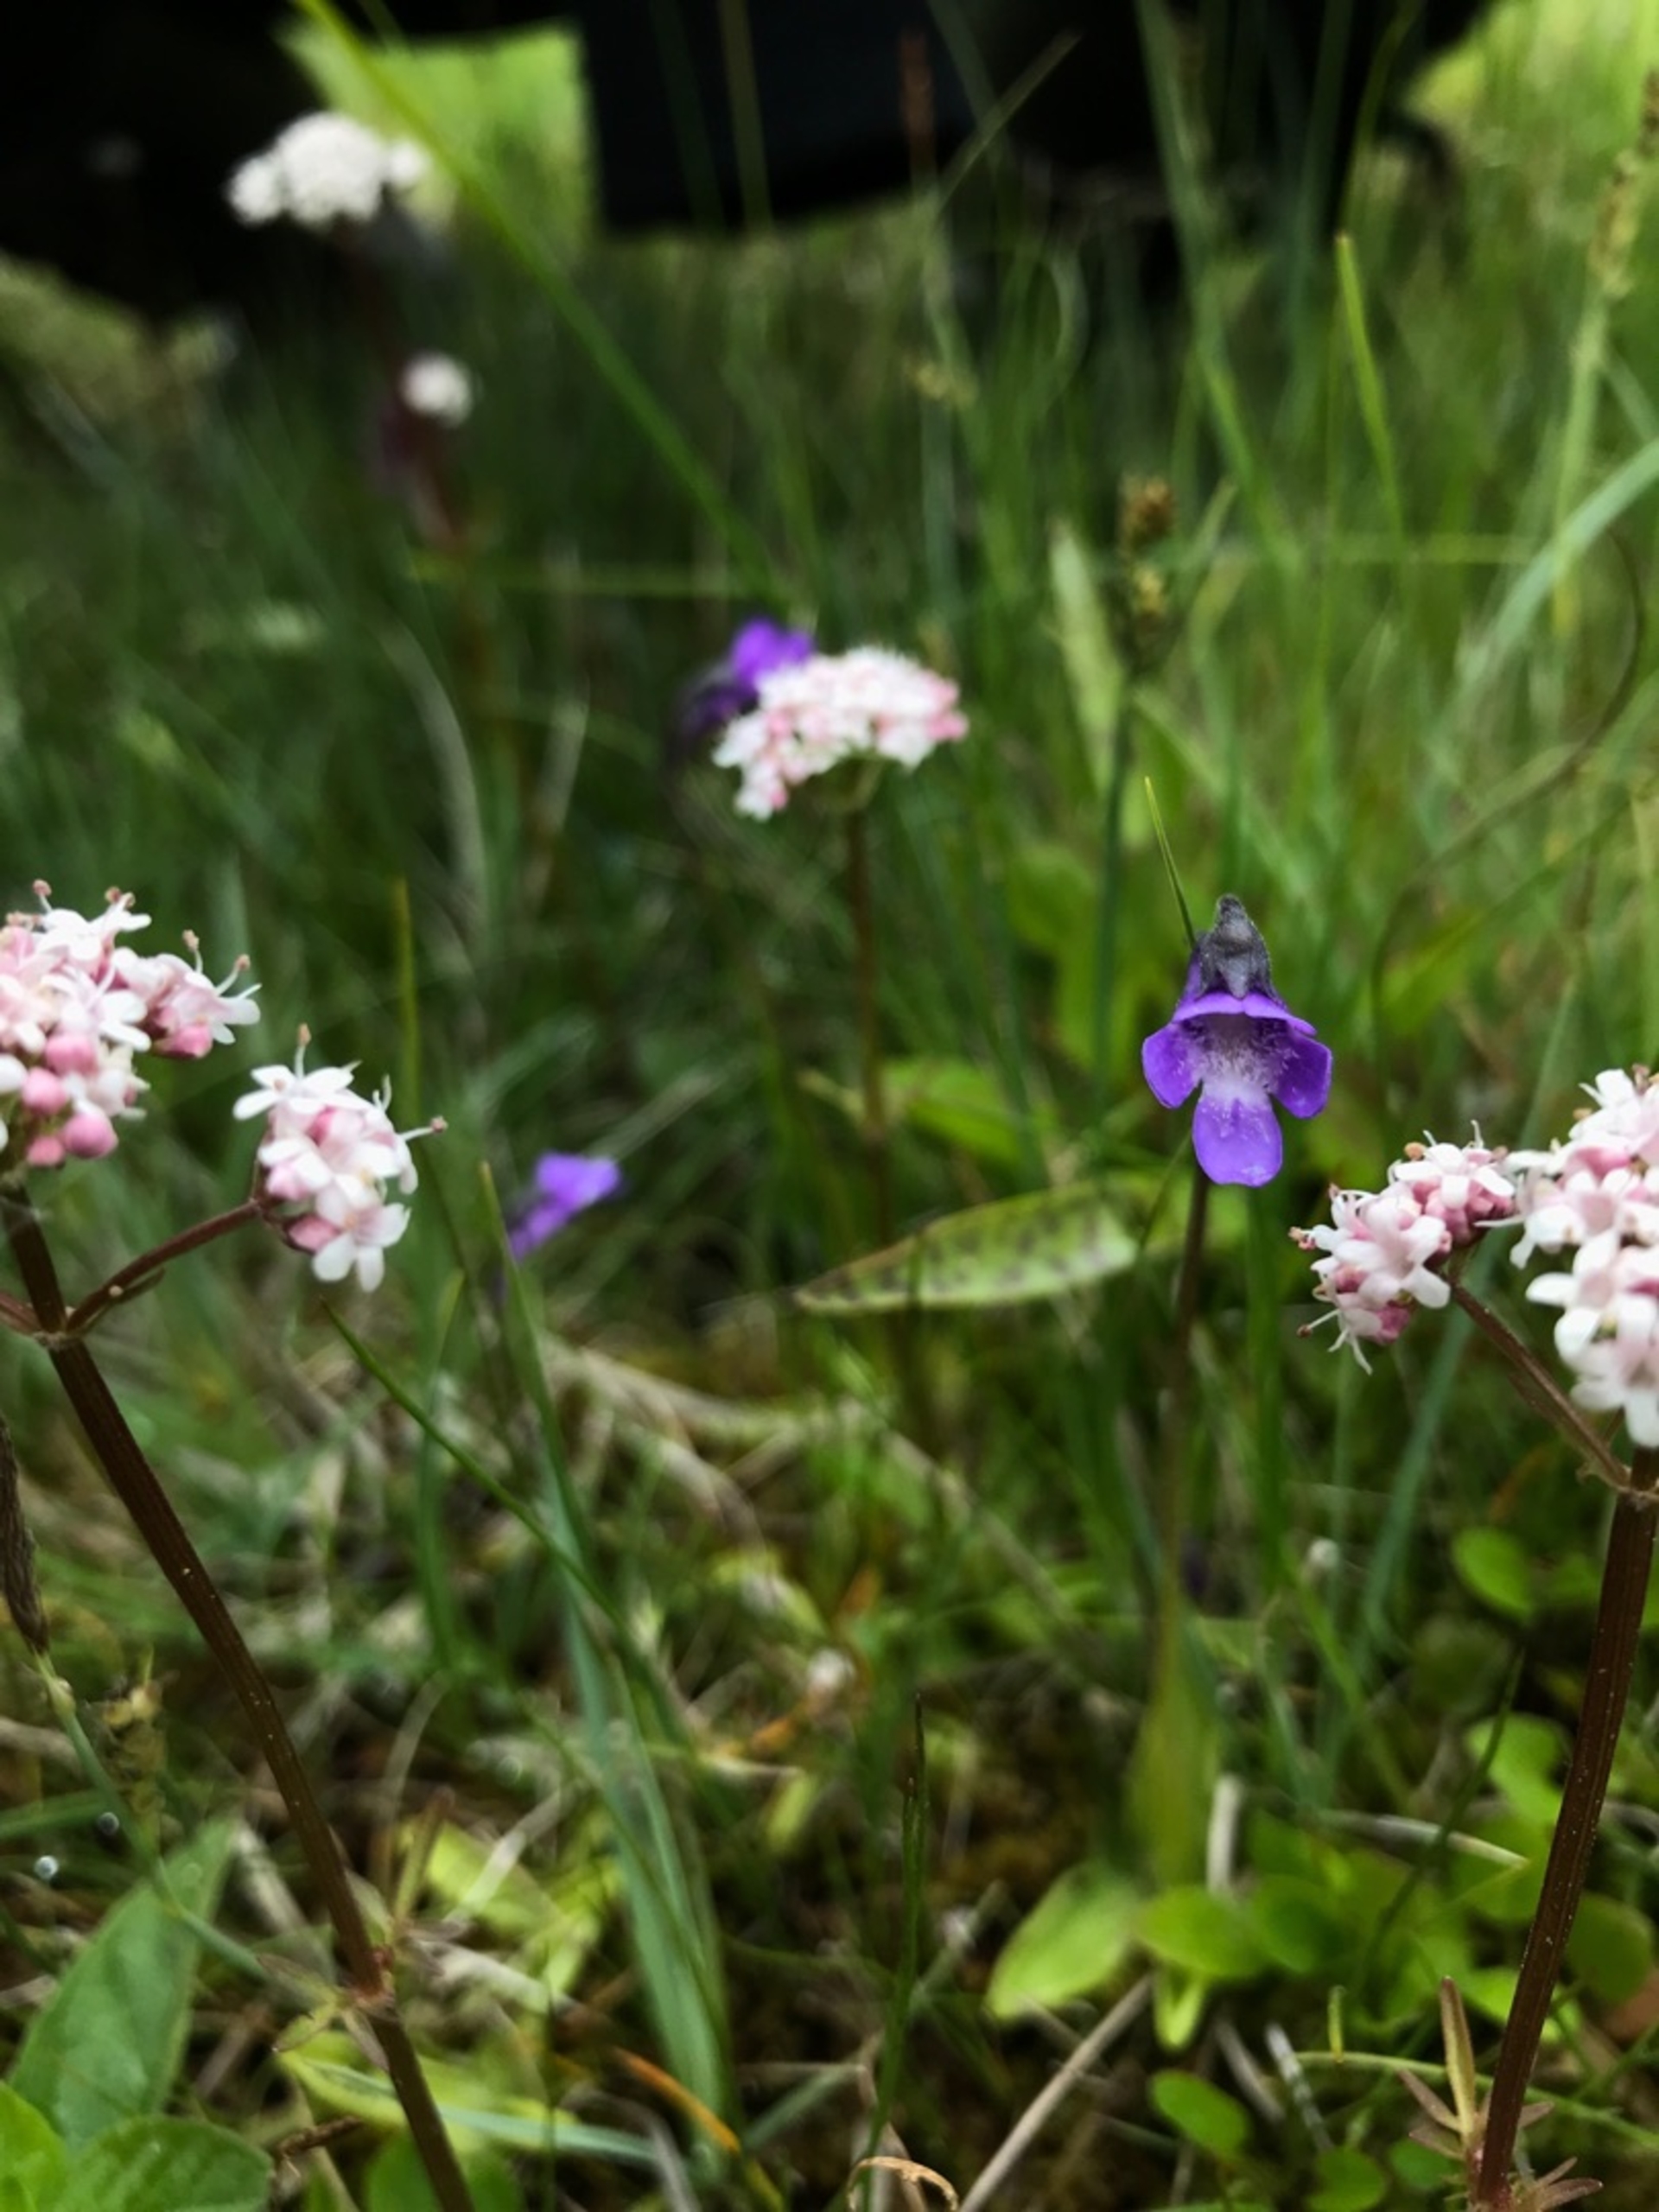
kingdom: Plantae
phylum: Tracheophyta
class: Magnoliopsida
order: Dipsacales
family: Caprifoliaceae
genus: Valeriana
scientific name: Valeriana dioica
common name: Tvebo baldrian
